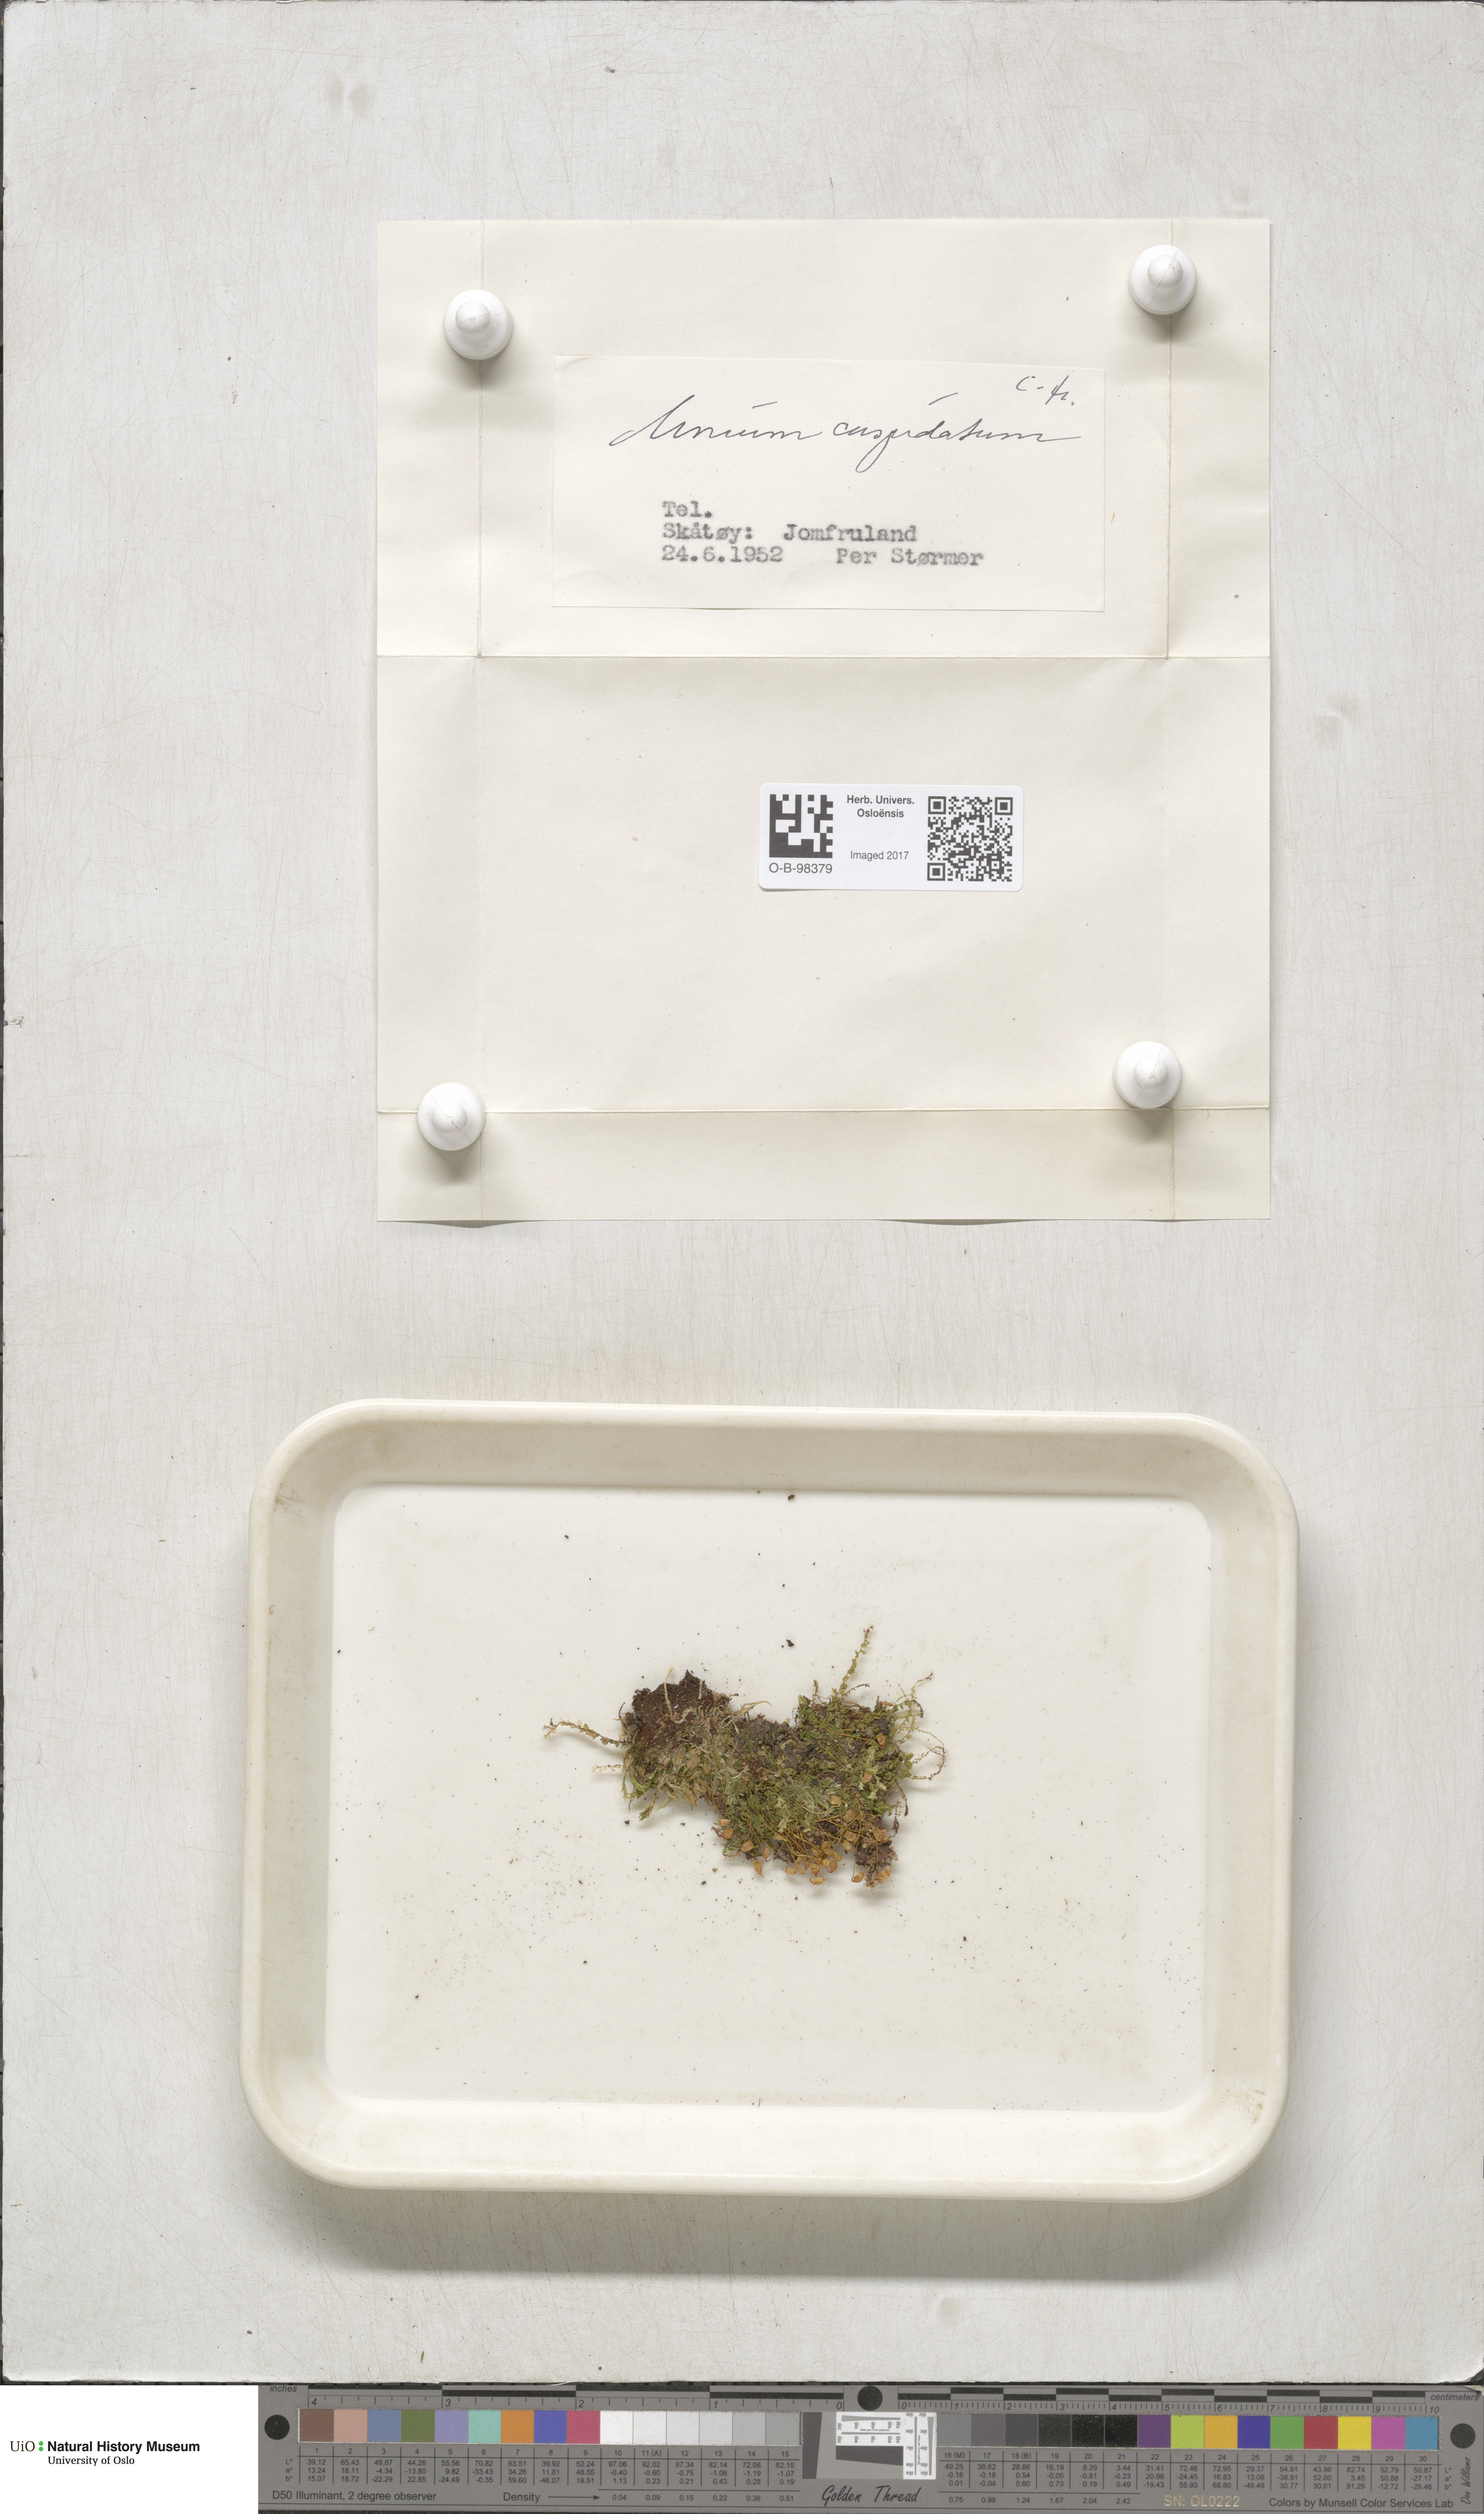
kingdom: Plantae
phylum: Bryophyta
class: Bryopsida
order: Bryales
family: Mniaceae
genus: Plagiomnium
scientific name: Plagiomnium cuspidatum
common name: Woodsy leafy moss
